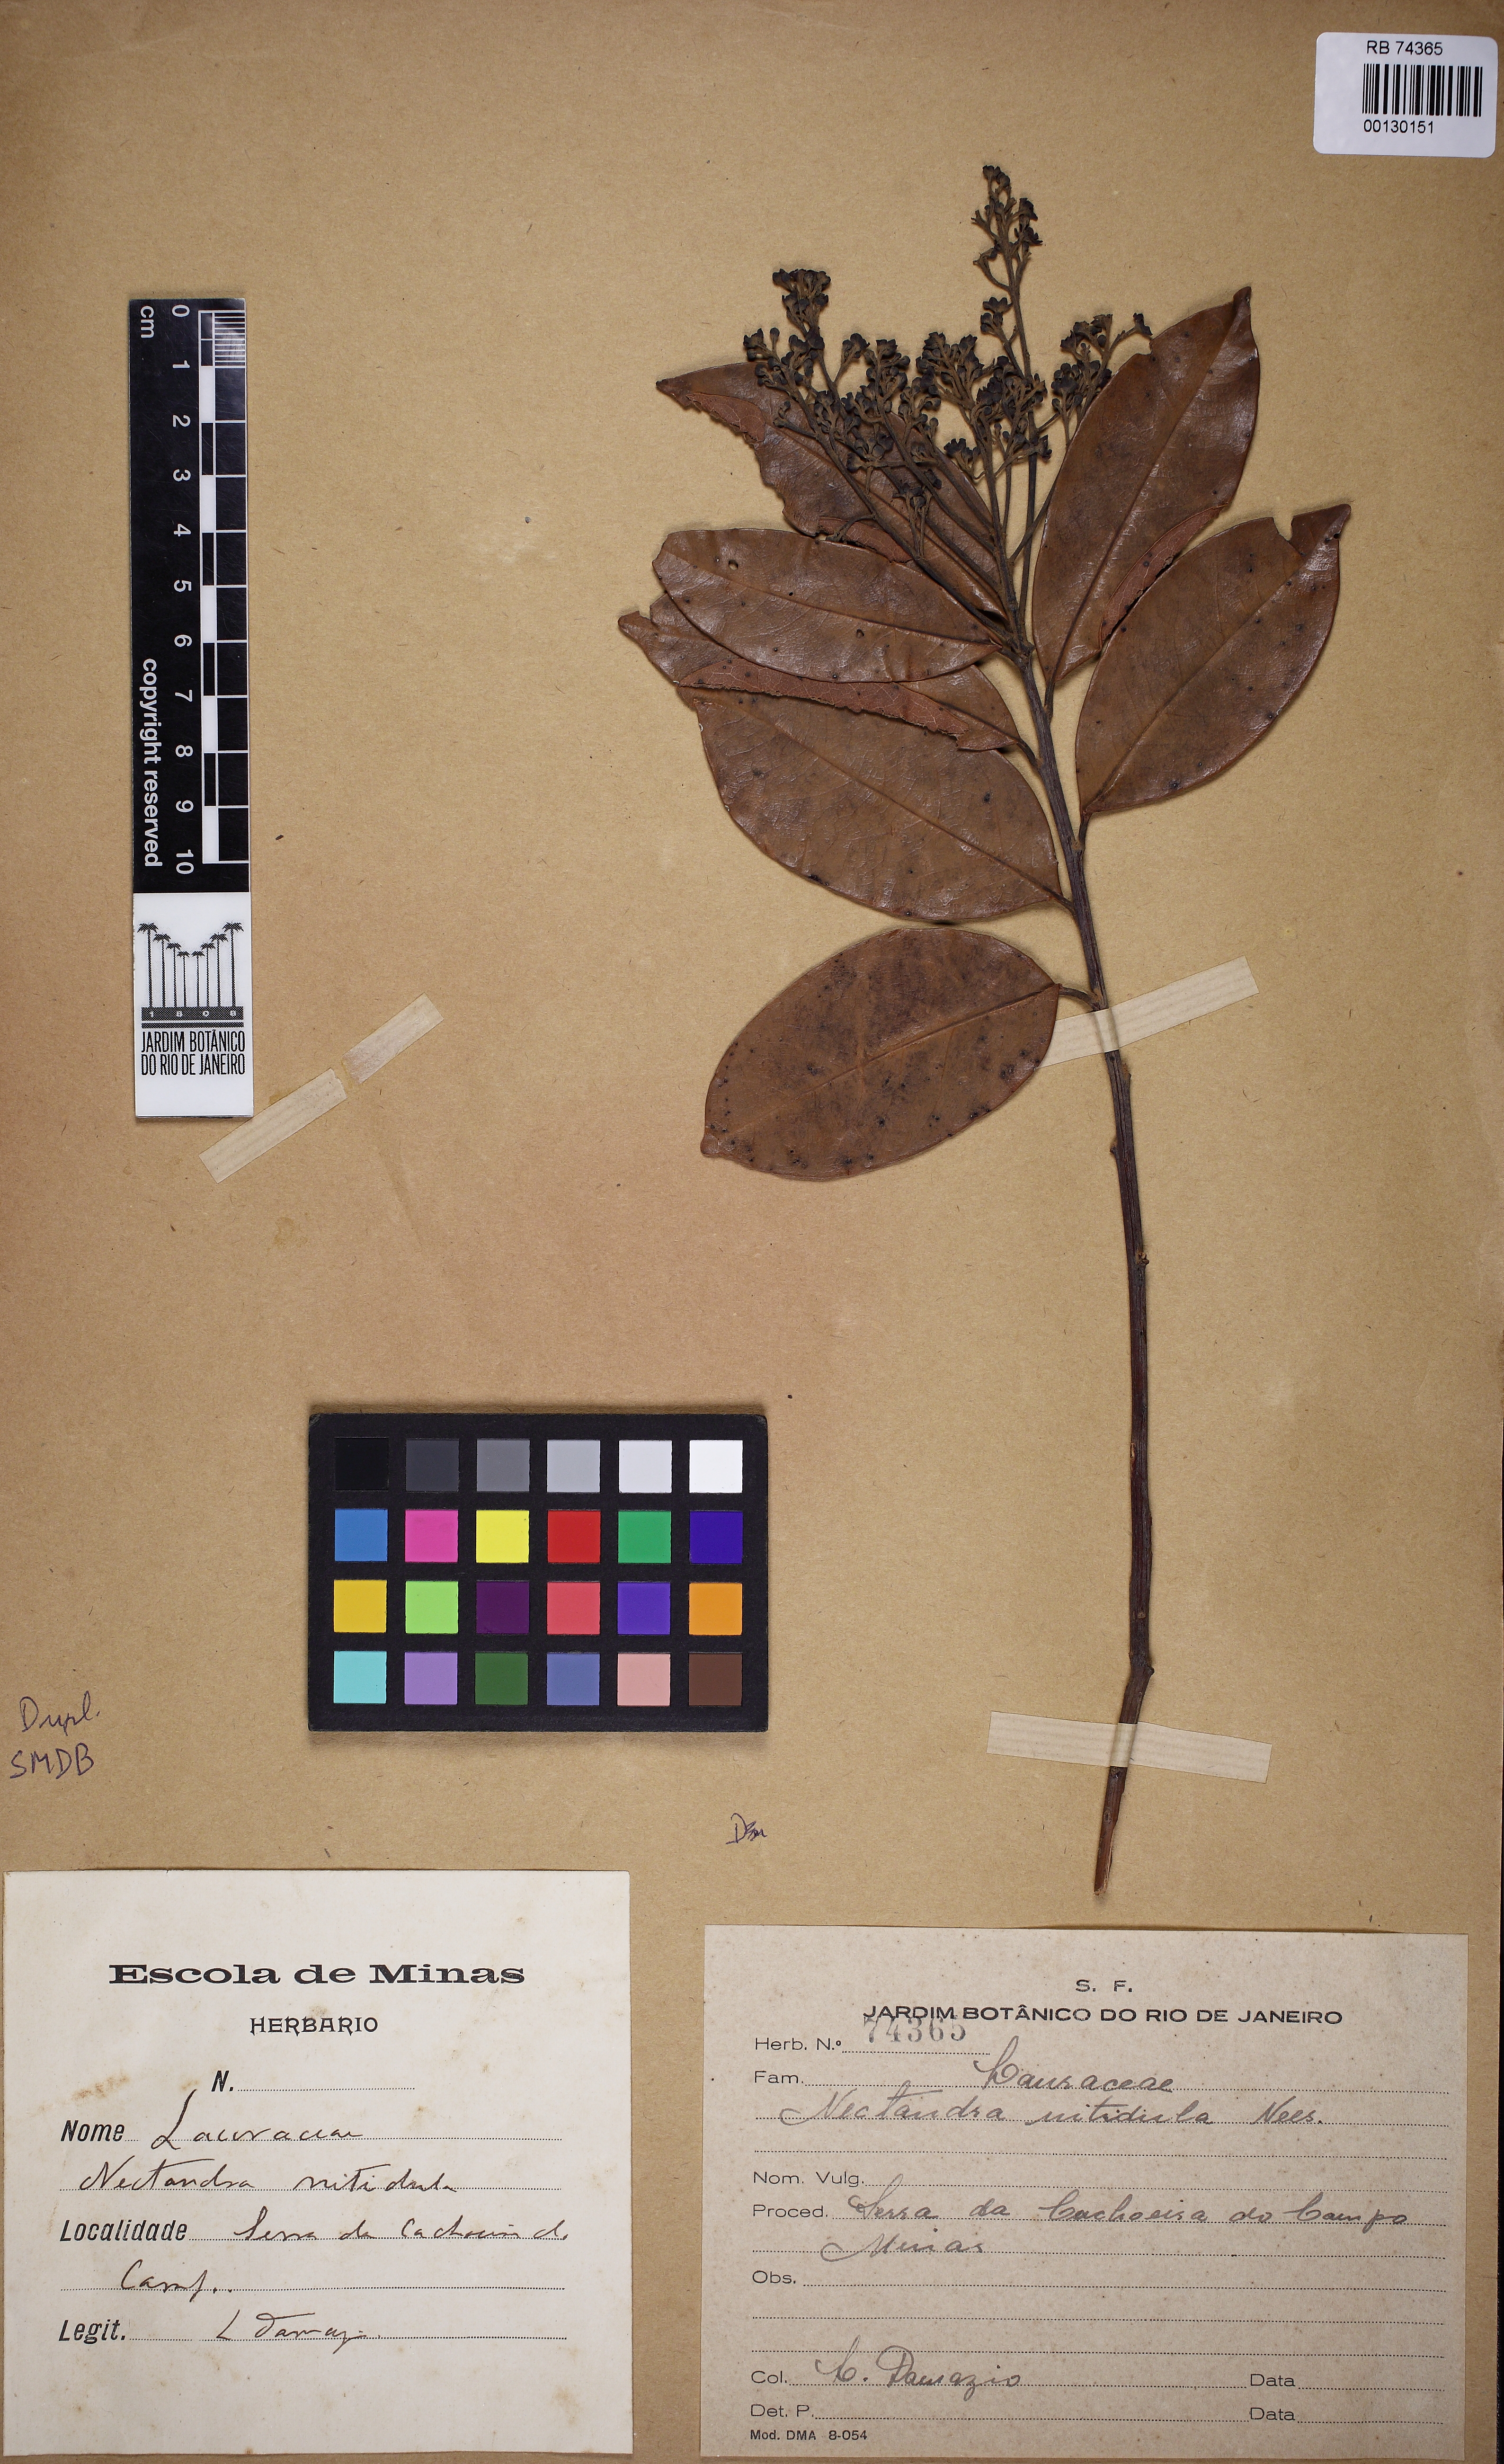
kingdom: Plantae
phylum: Tracheophyta
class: Magnoliopsida
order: Laurales
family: Lauraceae
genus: Ocotea
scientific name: Ocotea nigrita
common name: Laurel
